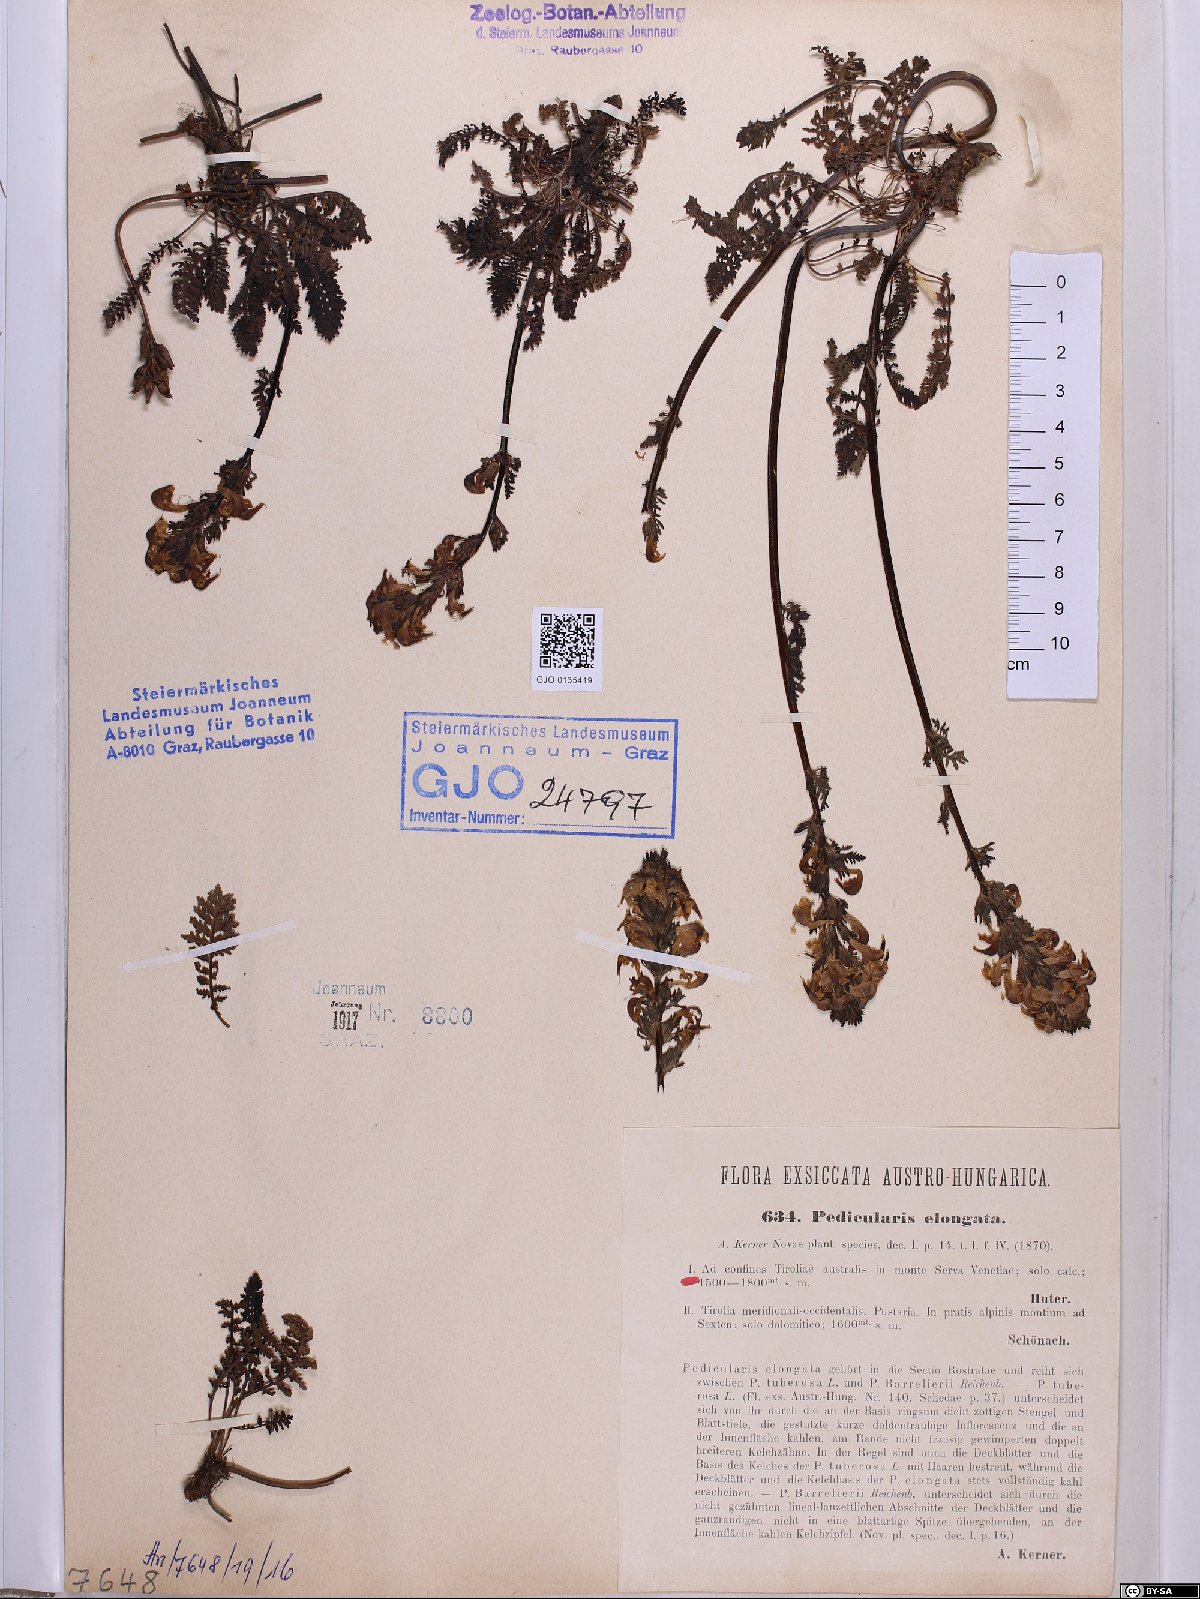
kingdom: Plantae
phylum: Tracheophyta
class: Magnoliopsida
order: Lamiales
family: Orobanchaceae
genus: Pedicularis
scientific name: Pedicularis elongata
